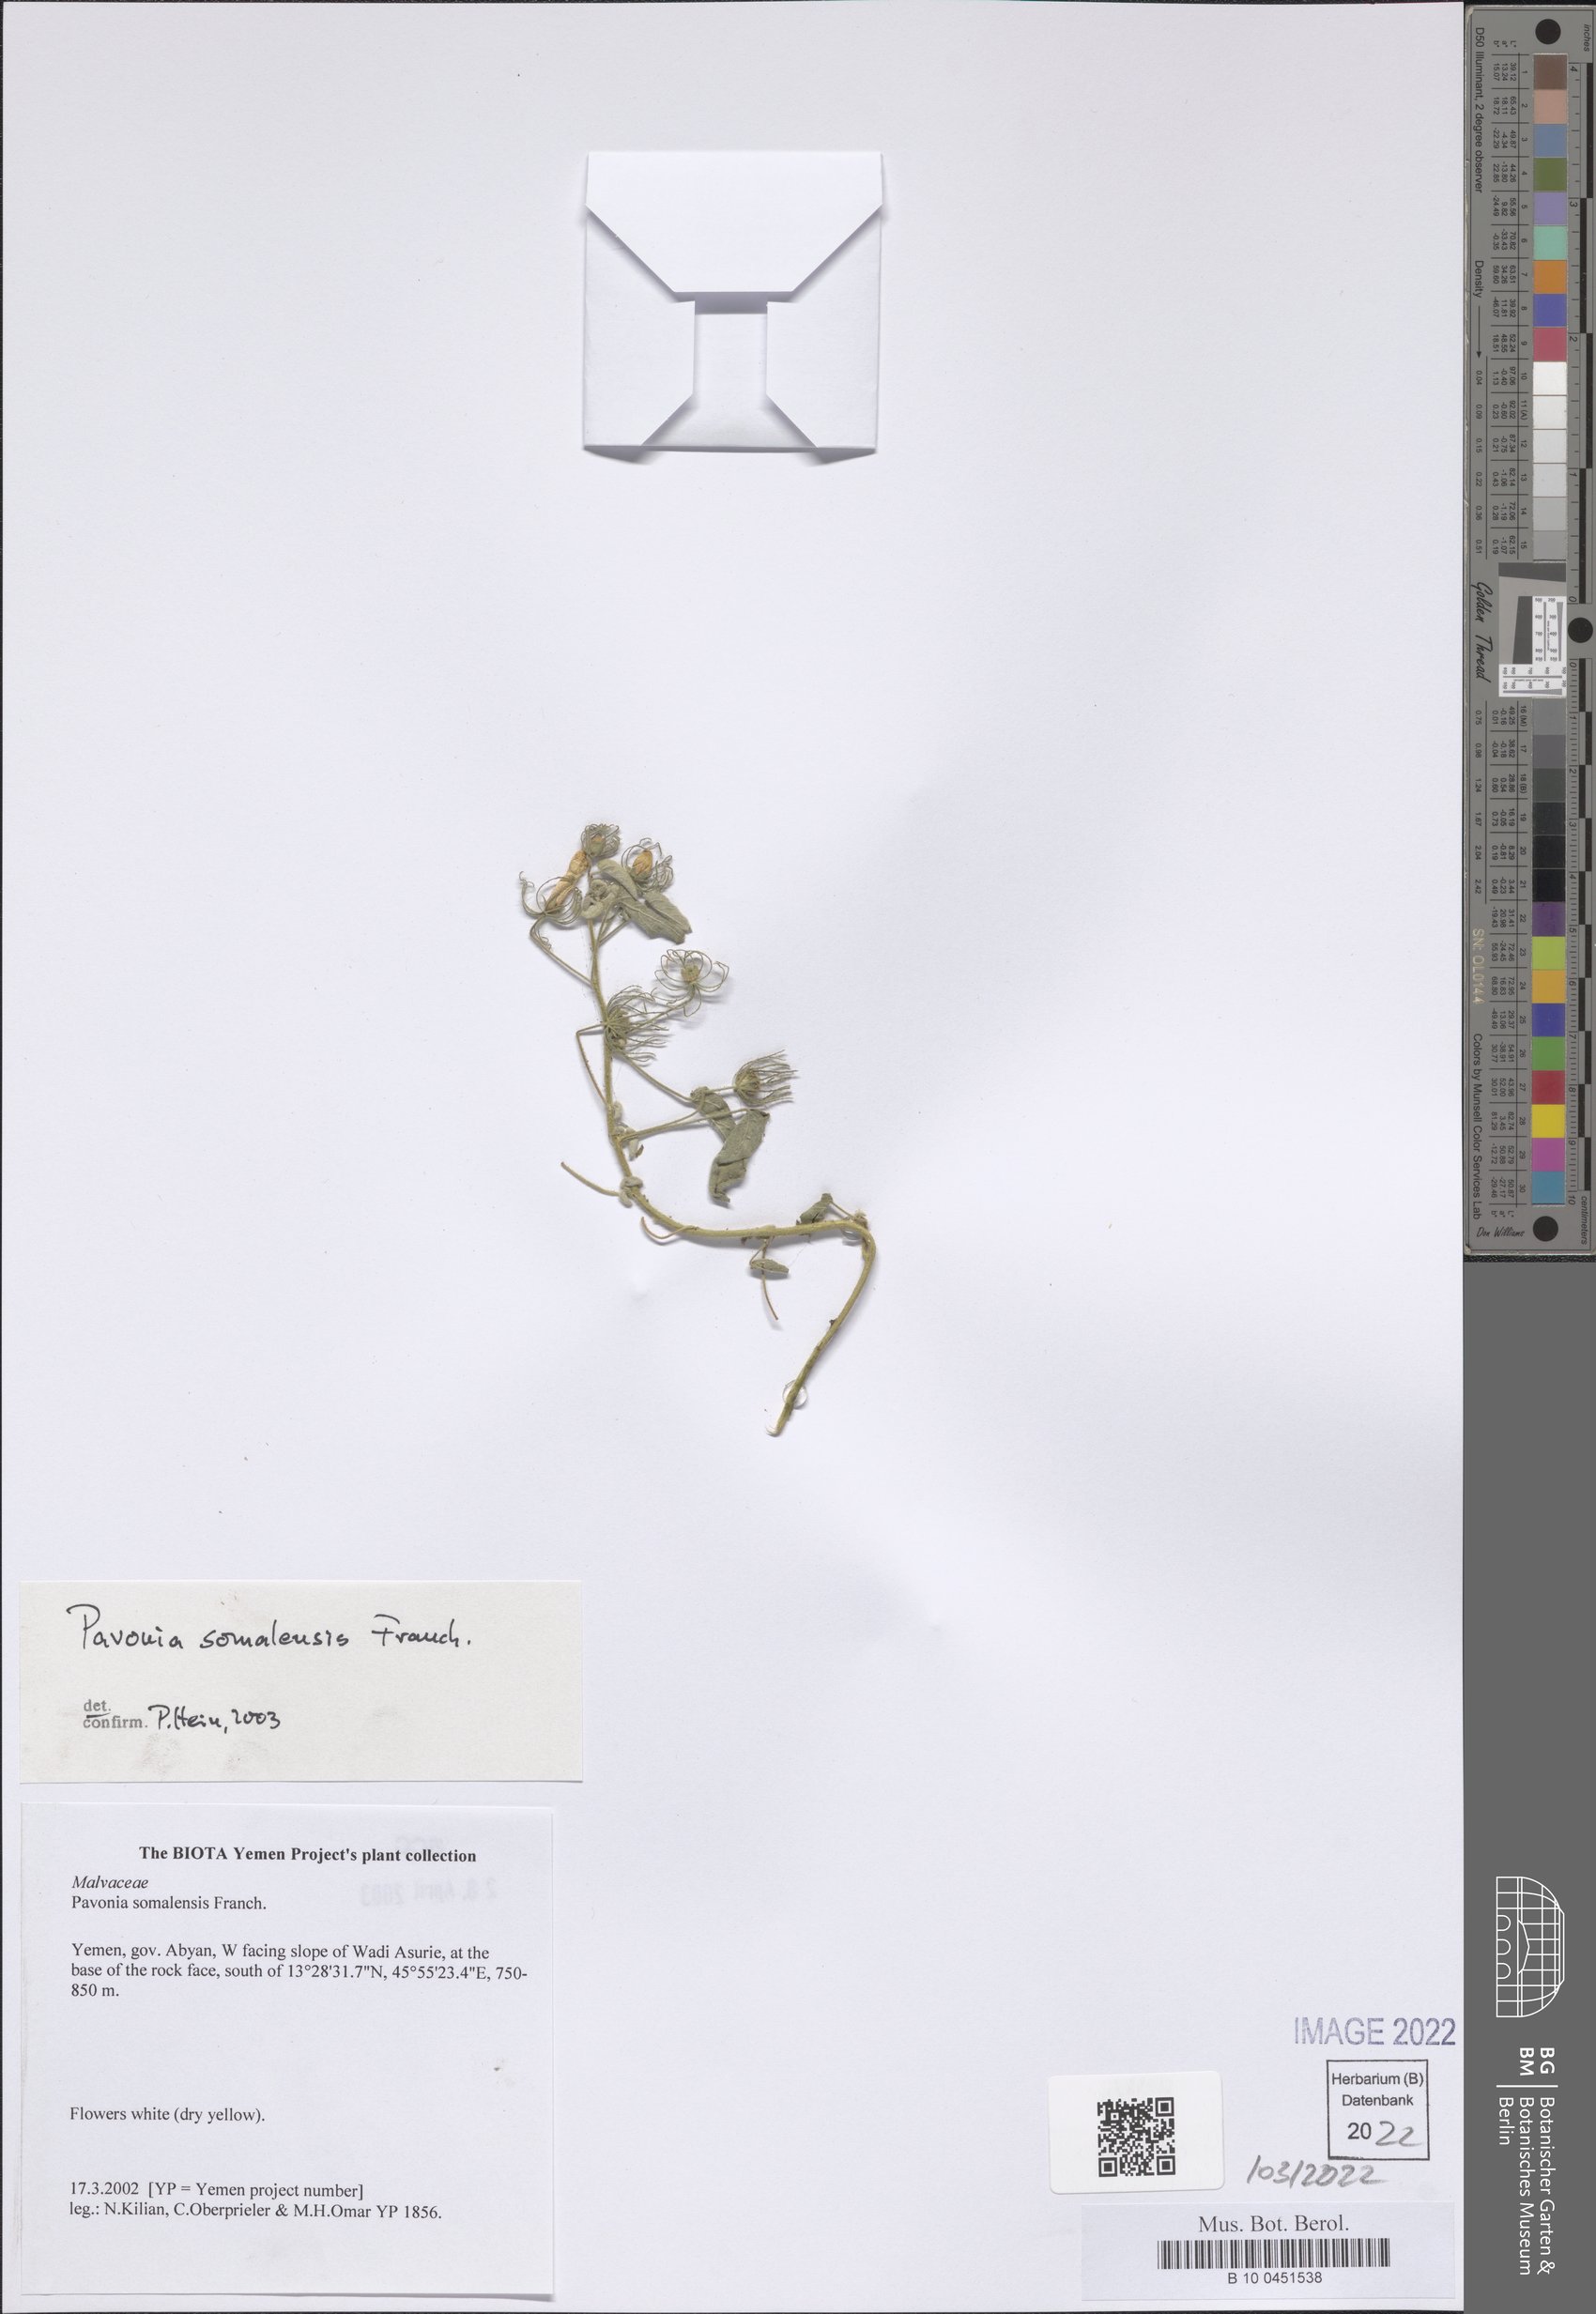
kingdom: Plantae
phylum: Tracheophyta
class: Magnoliopsida
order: Malvales
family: Malvaceae
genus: Pavonia
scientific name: Pavonia somalensis
